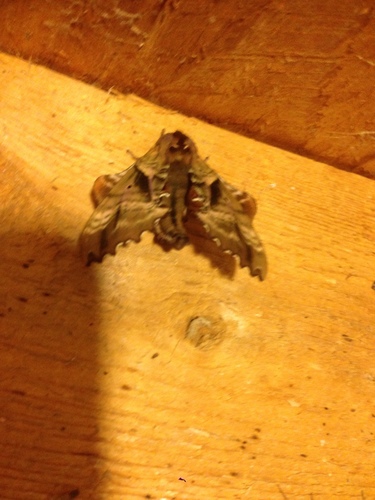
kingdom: Animalia
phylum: Arthropoda
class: Insecta
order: Lepidoptera
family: Sphingidae
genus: Paonias
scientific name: Paonias excaecata
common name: Blind-eyed sphinx
